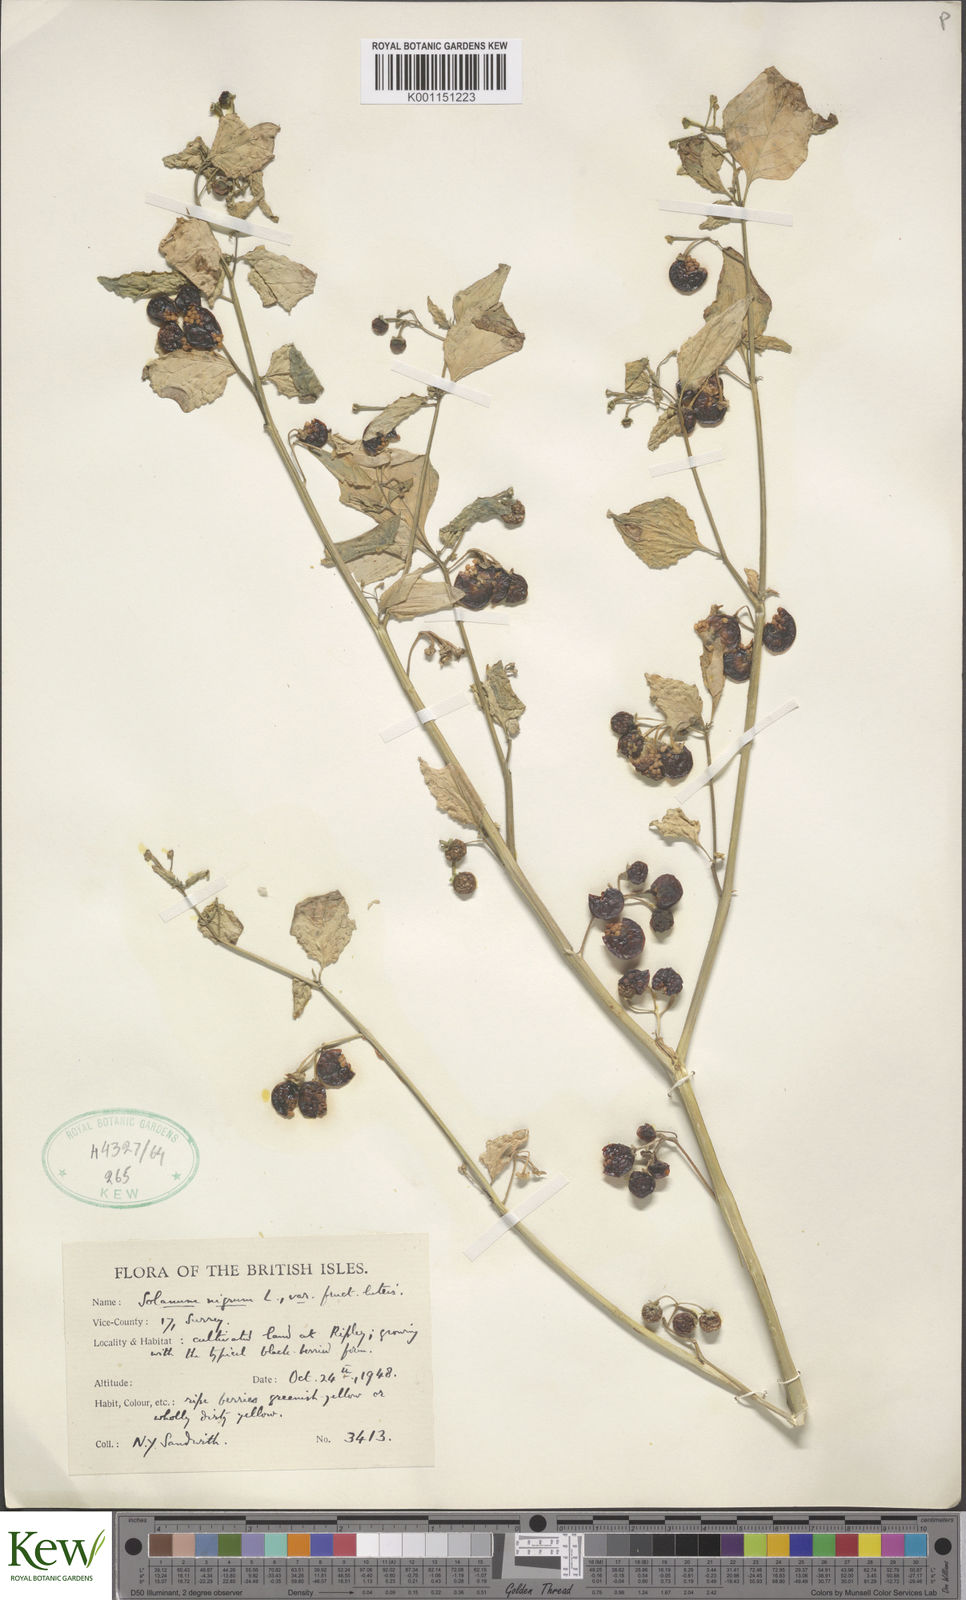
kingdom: Plantae
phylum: Tracheophyta
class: Magnoliopsida
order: Solanales
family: Solanaceae
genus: Solanum
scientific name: Solanum nigrum
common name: Black nightshade
